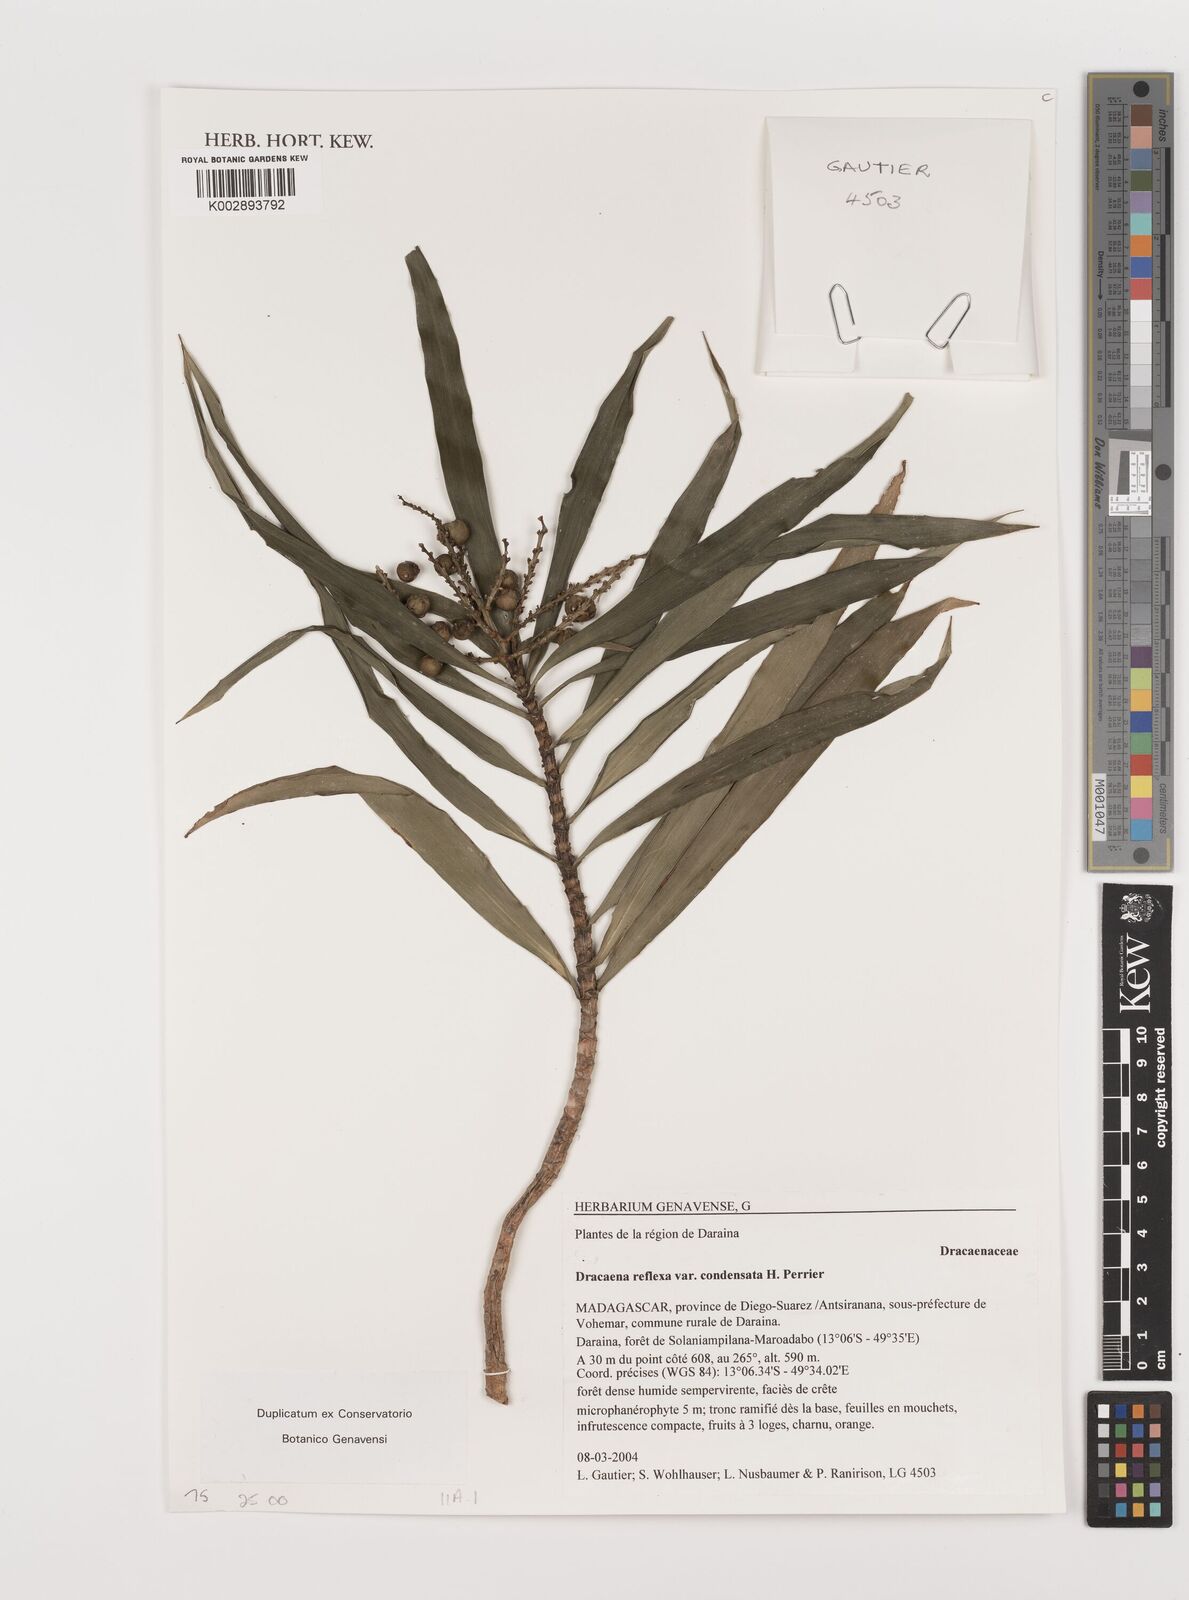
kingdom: Plantae
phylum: Tracheophyta
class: Liliopsida
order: Asparagales
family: Asparagaceae
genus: Dracaena
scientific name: Dracaena reflexa
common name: Song-of-india
